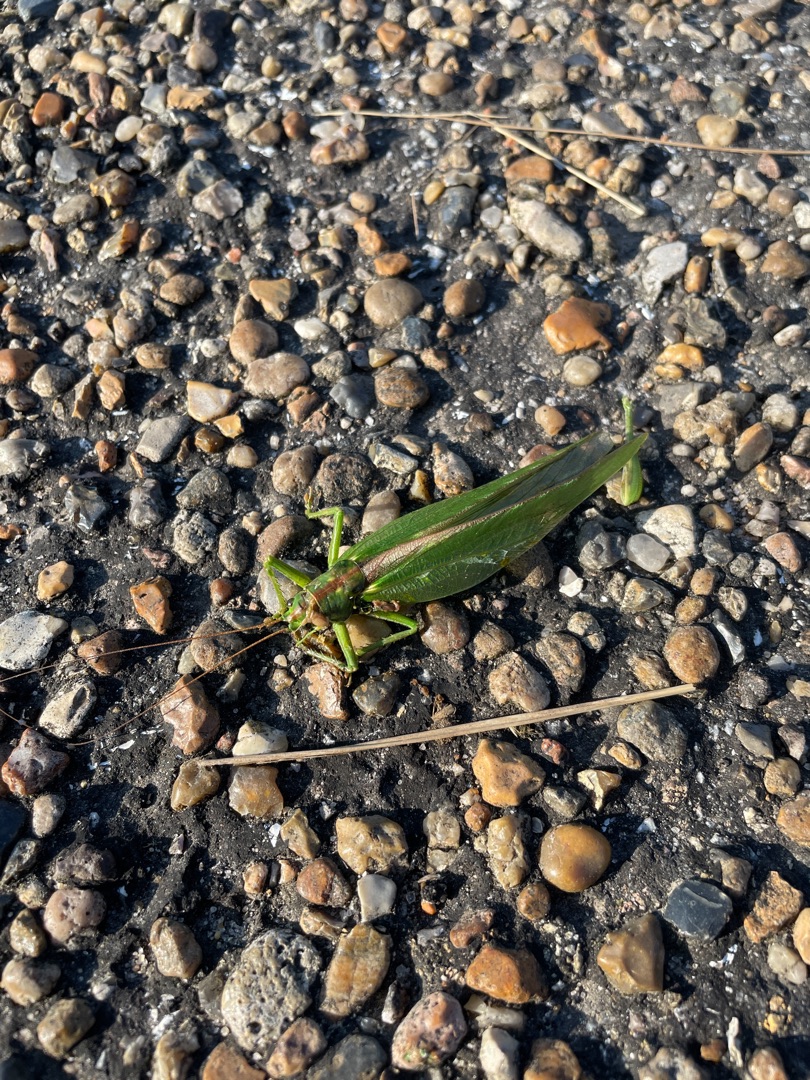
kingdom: Animalia
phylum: Arthropoda
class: Insecta
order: Orthoptera
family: Tettigoniidae
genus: Tettigonia
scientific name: Tettigonia viridissima
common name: Stor grøn løvgræshoppe
